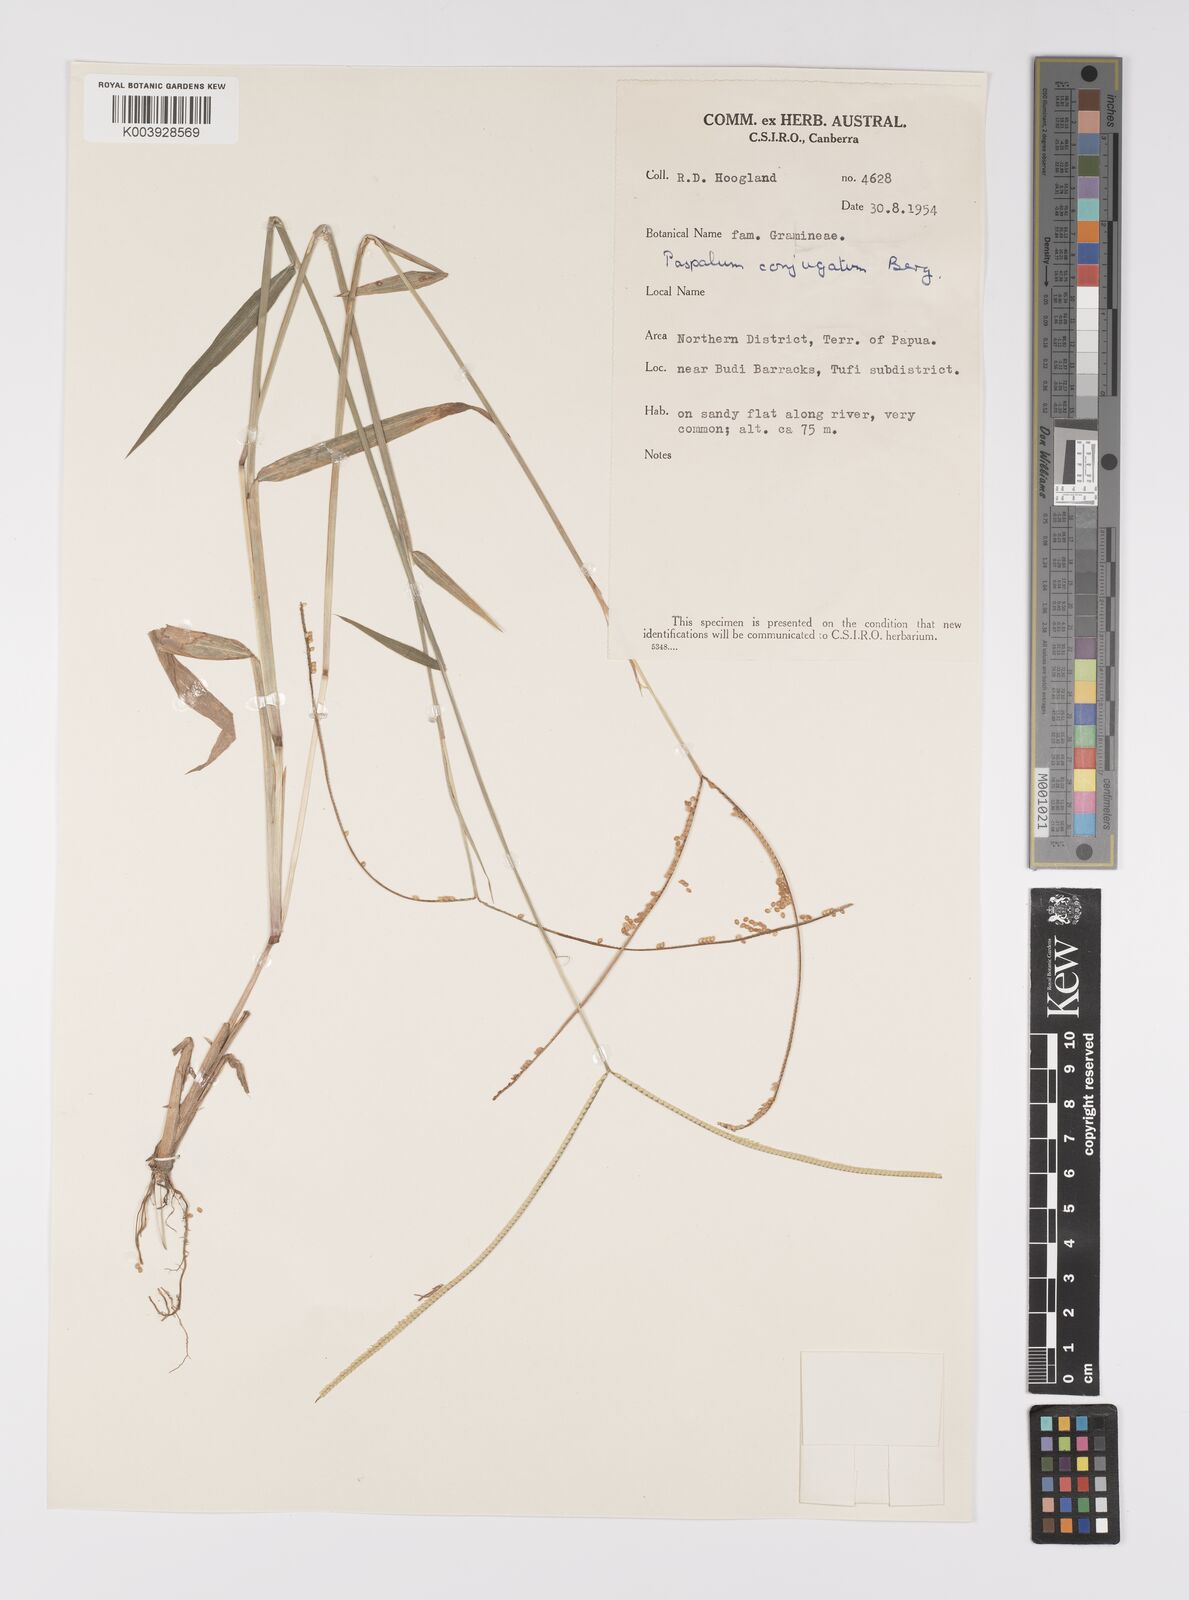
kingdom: Plantae
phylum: Tracheophyta
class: Liliopsida
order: Poales
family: Poaceae
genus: Paspalum
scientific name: Paspalum conjugatum
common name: Hilograss
